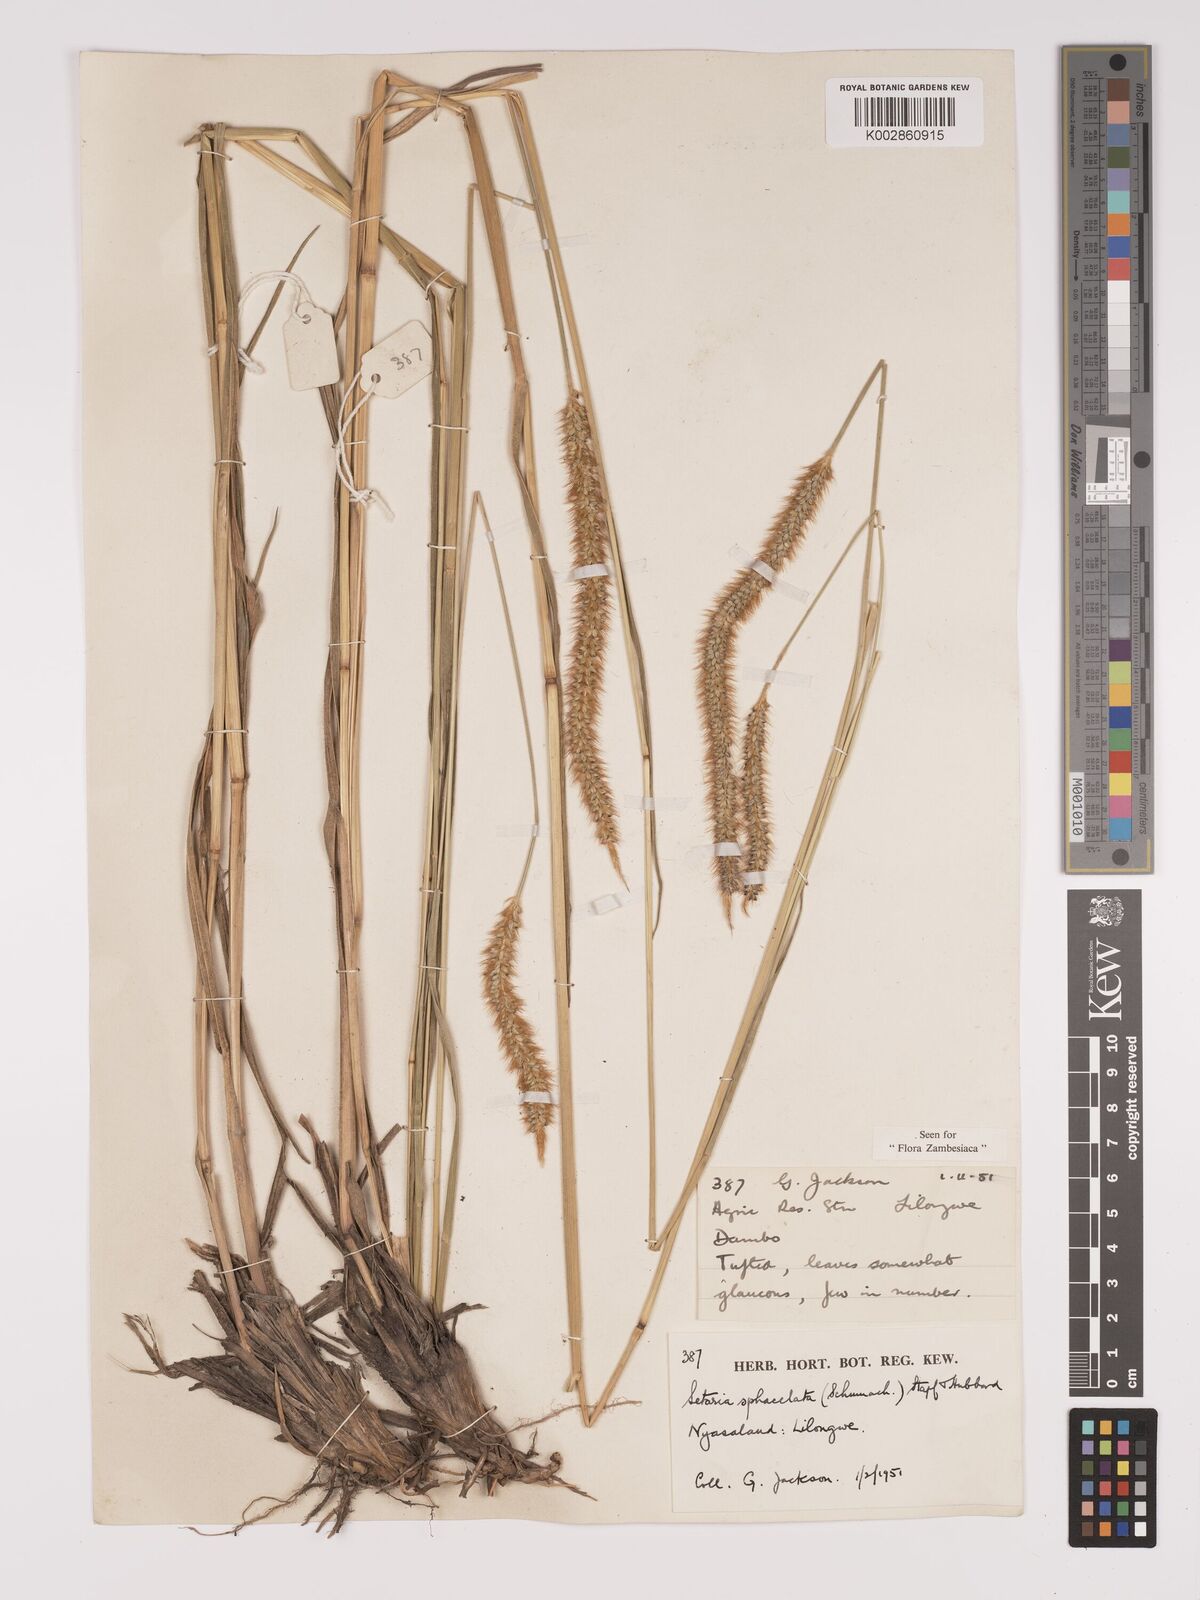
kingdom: Plantae
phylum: Tracheophyta
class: Liliopsida
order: Poales
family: Poaceae
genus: Setaria
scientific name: Setaria sphacelata
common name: African bristlegrass
